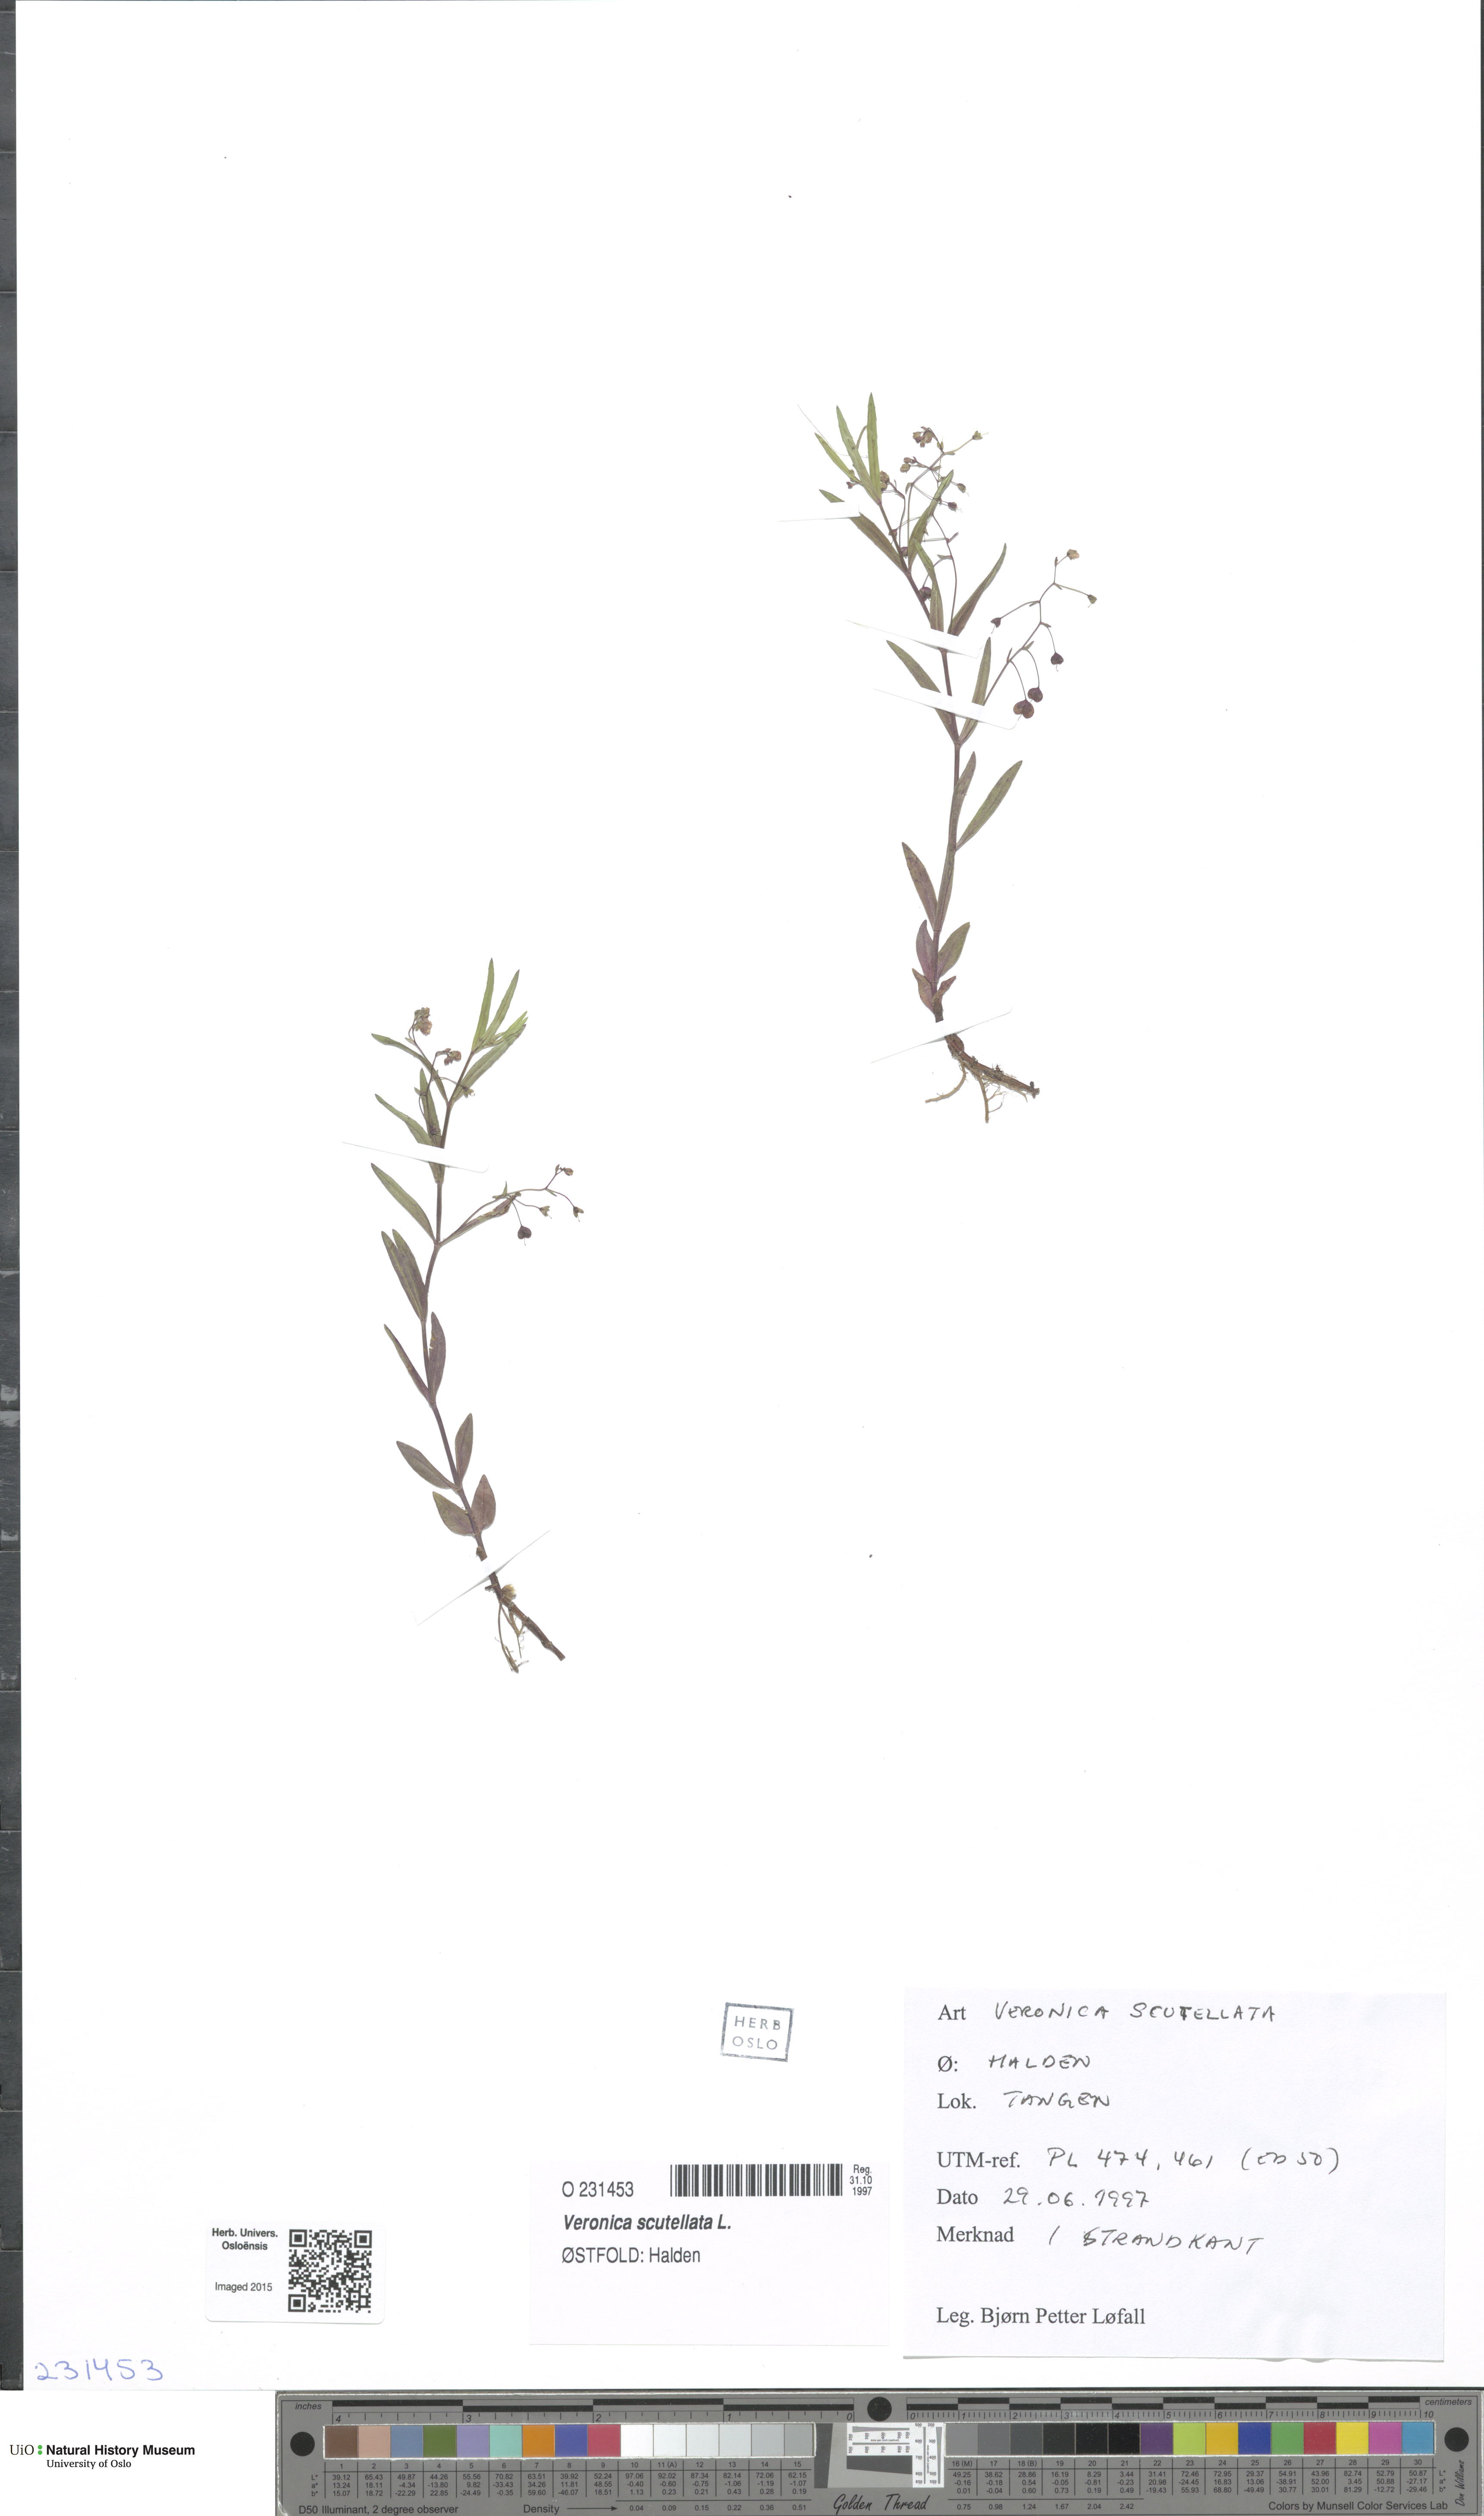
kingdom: Plantae
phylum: Tracheophyta
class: Magnoliopsida
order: Lamiales
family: Plantaginaceae
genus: Veronica
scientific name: Veronica scutellata
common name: Marsh speedwell
